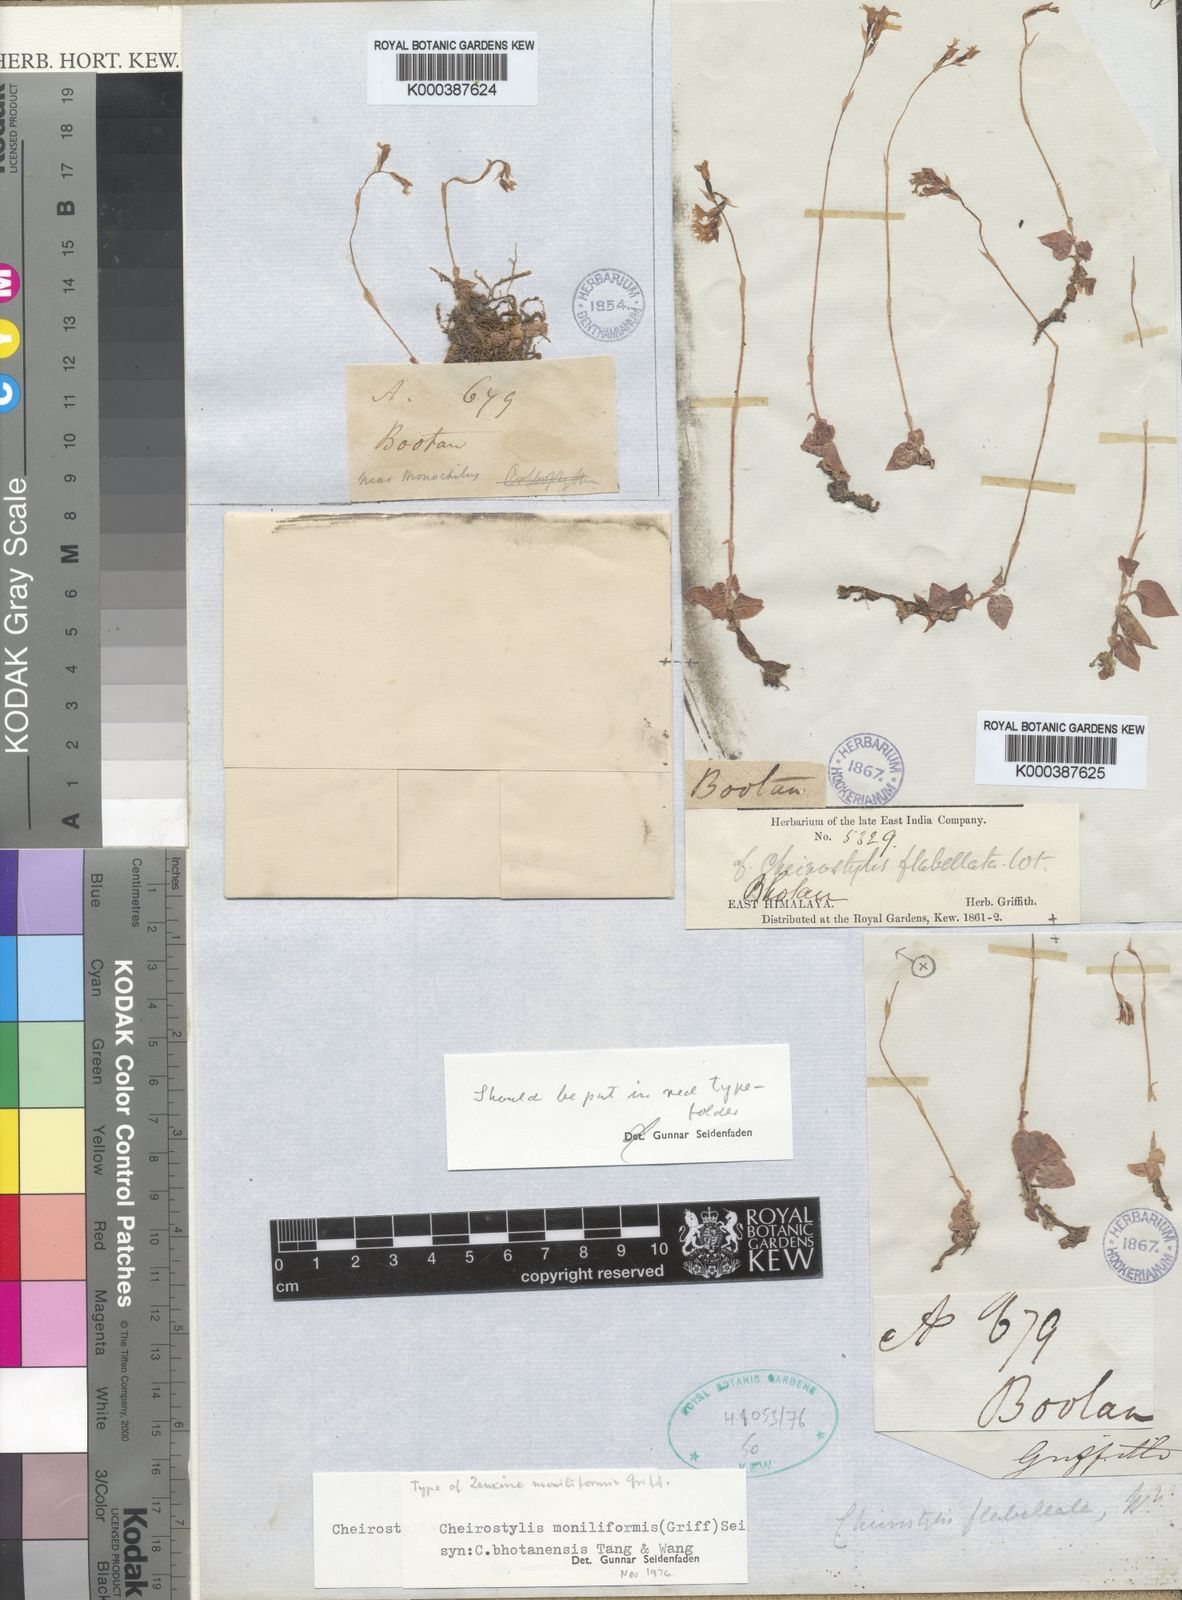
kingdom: Plantae
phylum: Tracheophyta
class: Liliopsida
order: Asparagales
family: Orchidaceae
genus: Ludisia
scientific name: Ludisia
